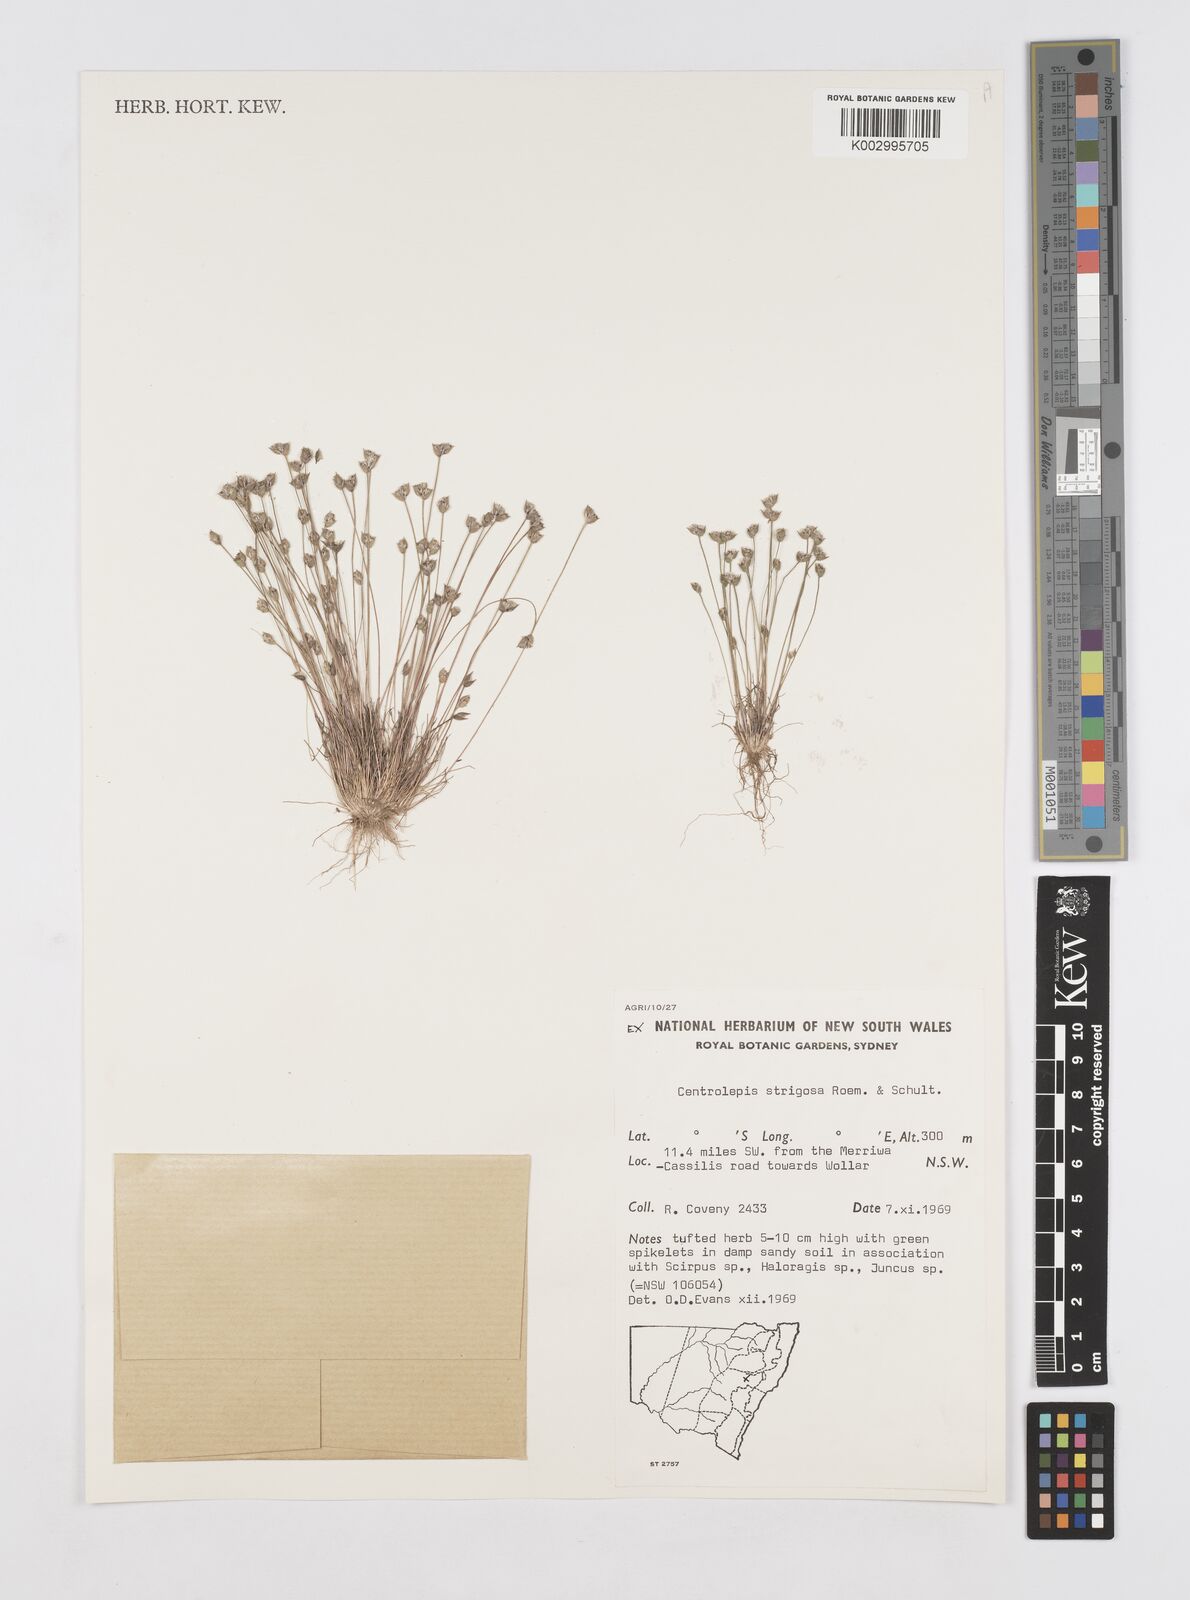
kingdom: Plantae
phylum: Tracheophyta
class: Liliopsida
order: Poales
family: Restionaceae
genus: Centrolepis
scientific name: Centrolepis strigosa
